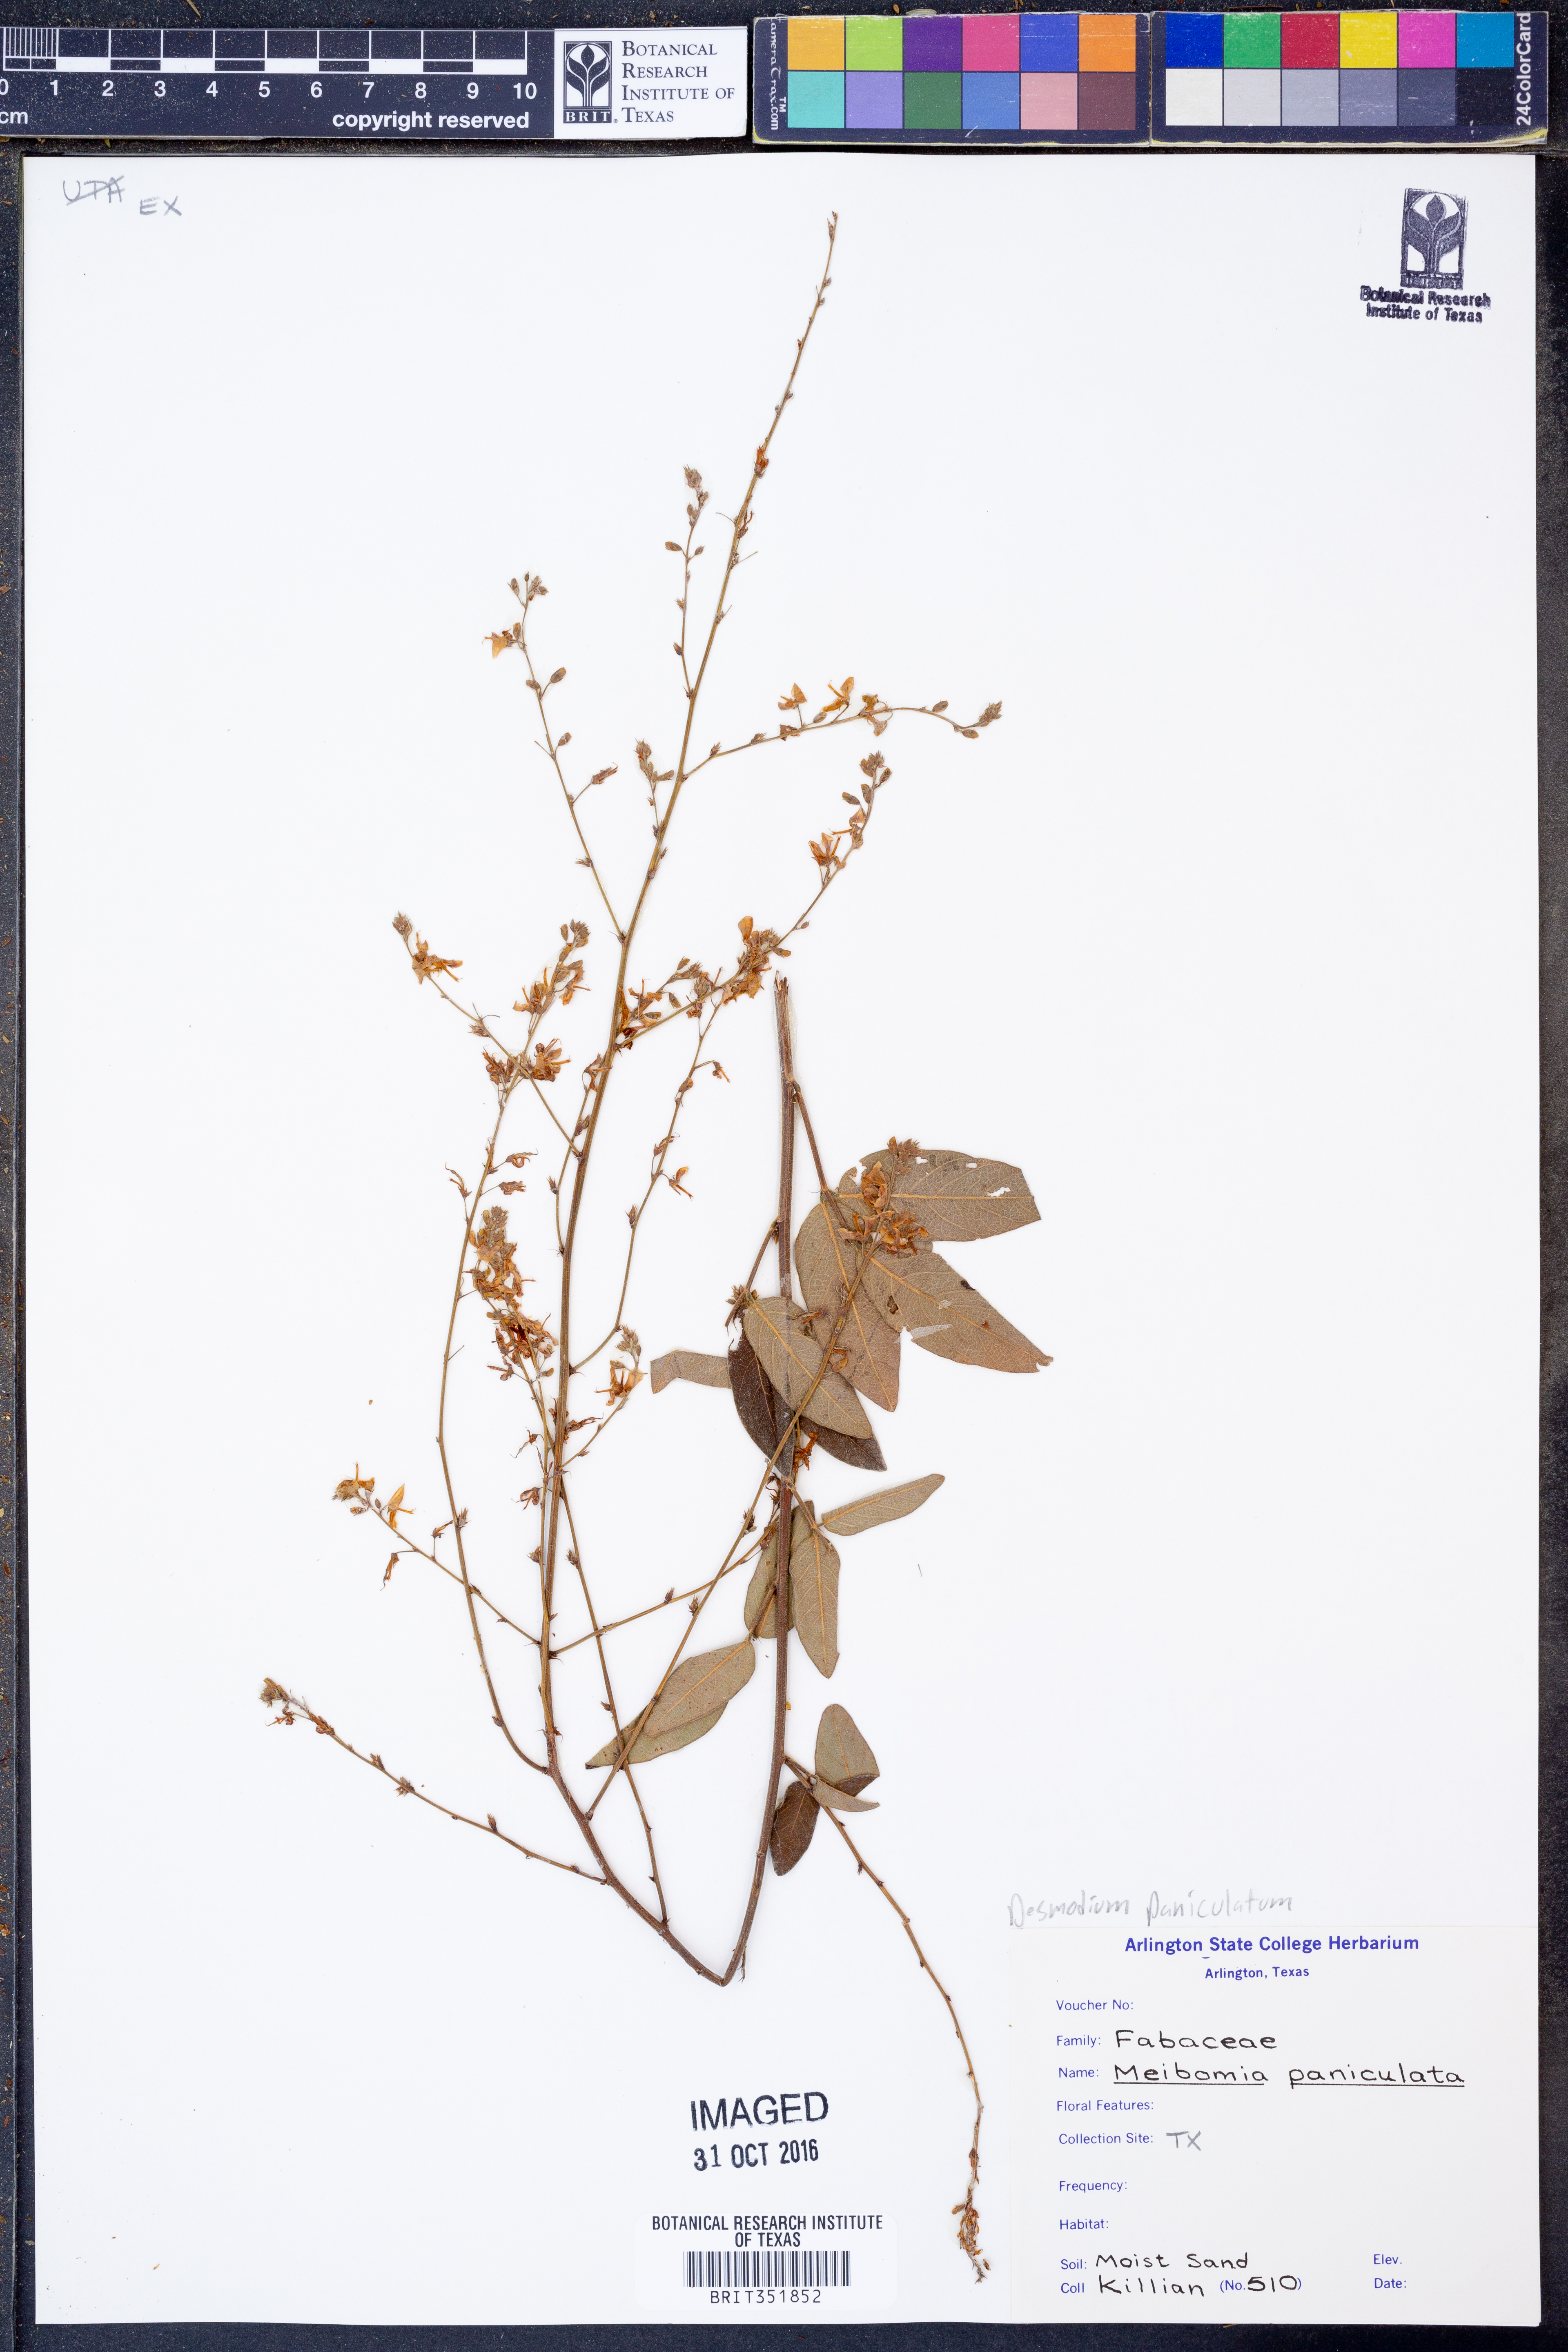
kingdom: Plantae
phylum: Tracheophyta
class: Magnoliopsida
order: Fabales
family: Fabaceae
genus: Desmodium
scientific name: Desmodium paniculatum
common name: Panicled tick-clover
